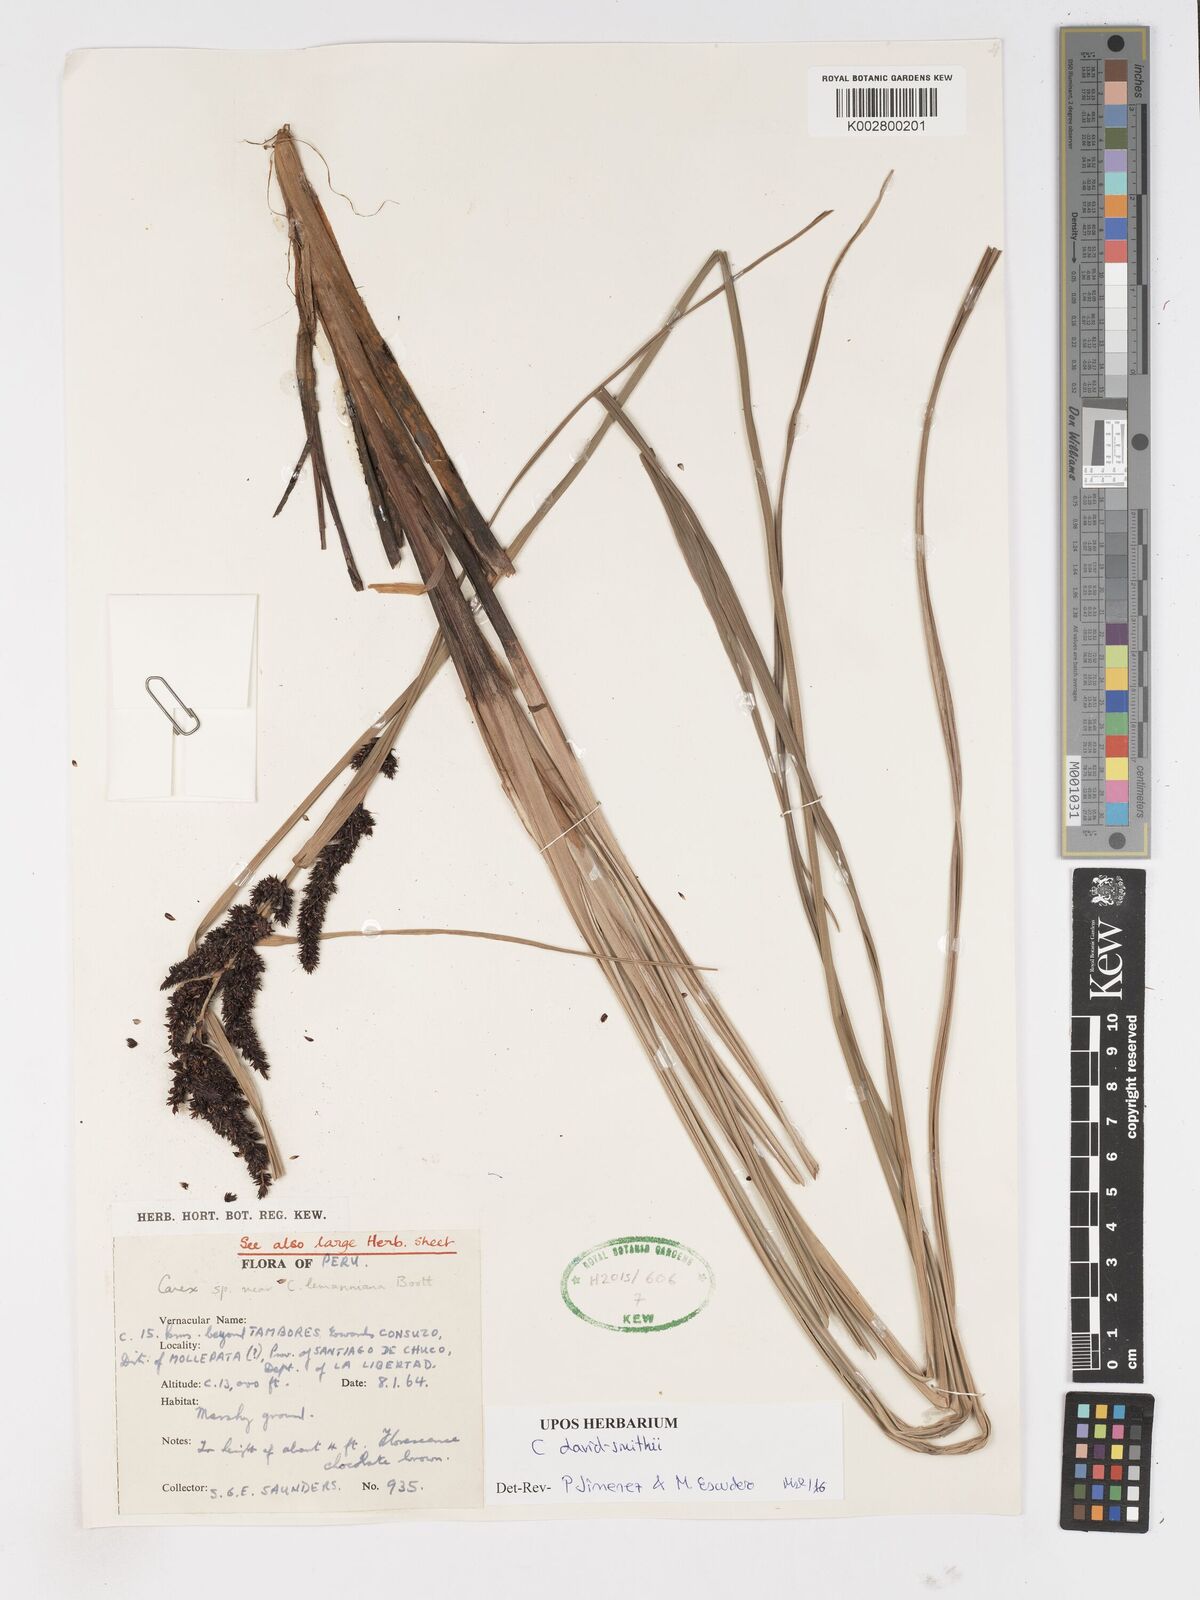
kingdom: Plantae
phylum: Tracheophyta
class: Liliopsida
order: Poales
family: Cyperaceae
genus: Carex
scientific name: Carex david-smithii
